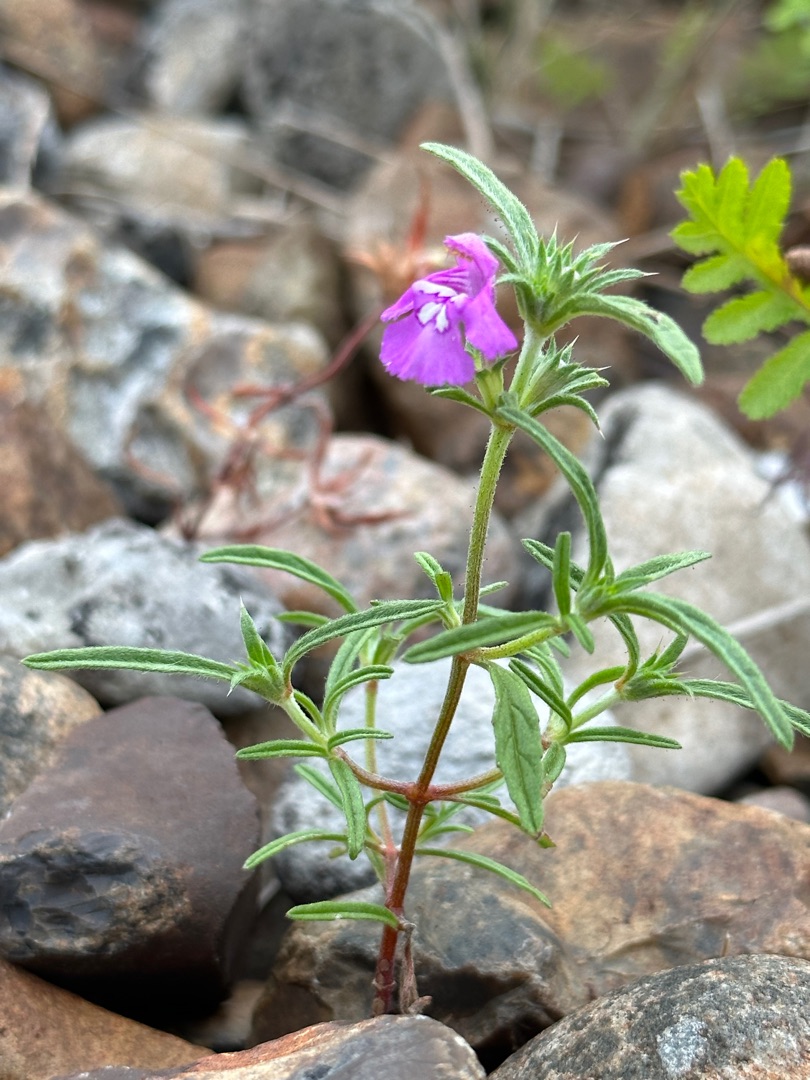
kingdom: Plantae
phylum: Tracheophyta
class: Magnoliopsida
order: Lamiales
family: Lamiaceae
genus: Galeopsis
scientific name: Galeopsis angustifolia
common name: Smalbladet hanekro
